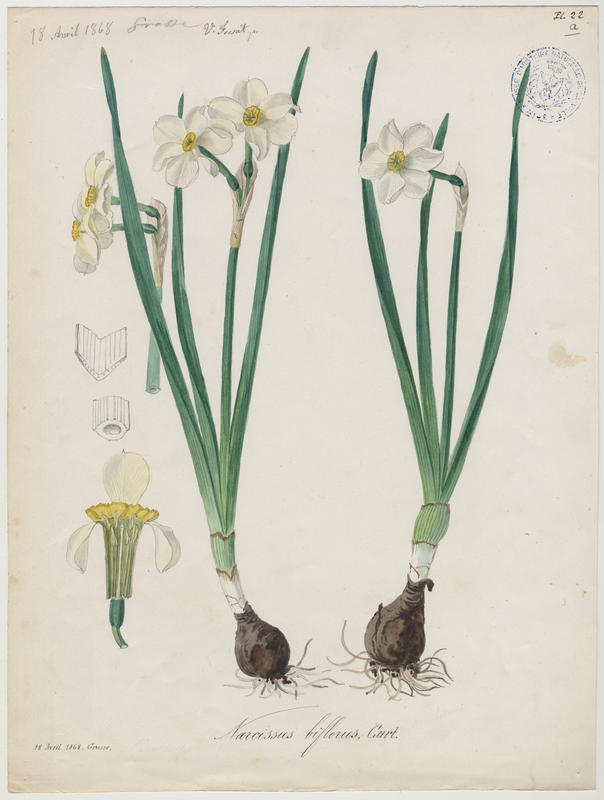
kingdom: Plantae
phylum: Tracheophyta
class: Liliopsida
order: Asparagales
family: Amaryllidaceae
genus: Narcissus
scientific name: Narcissus medioluteus
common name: Primrose-peerless
